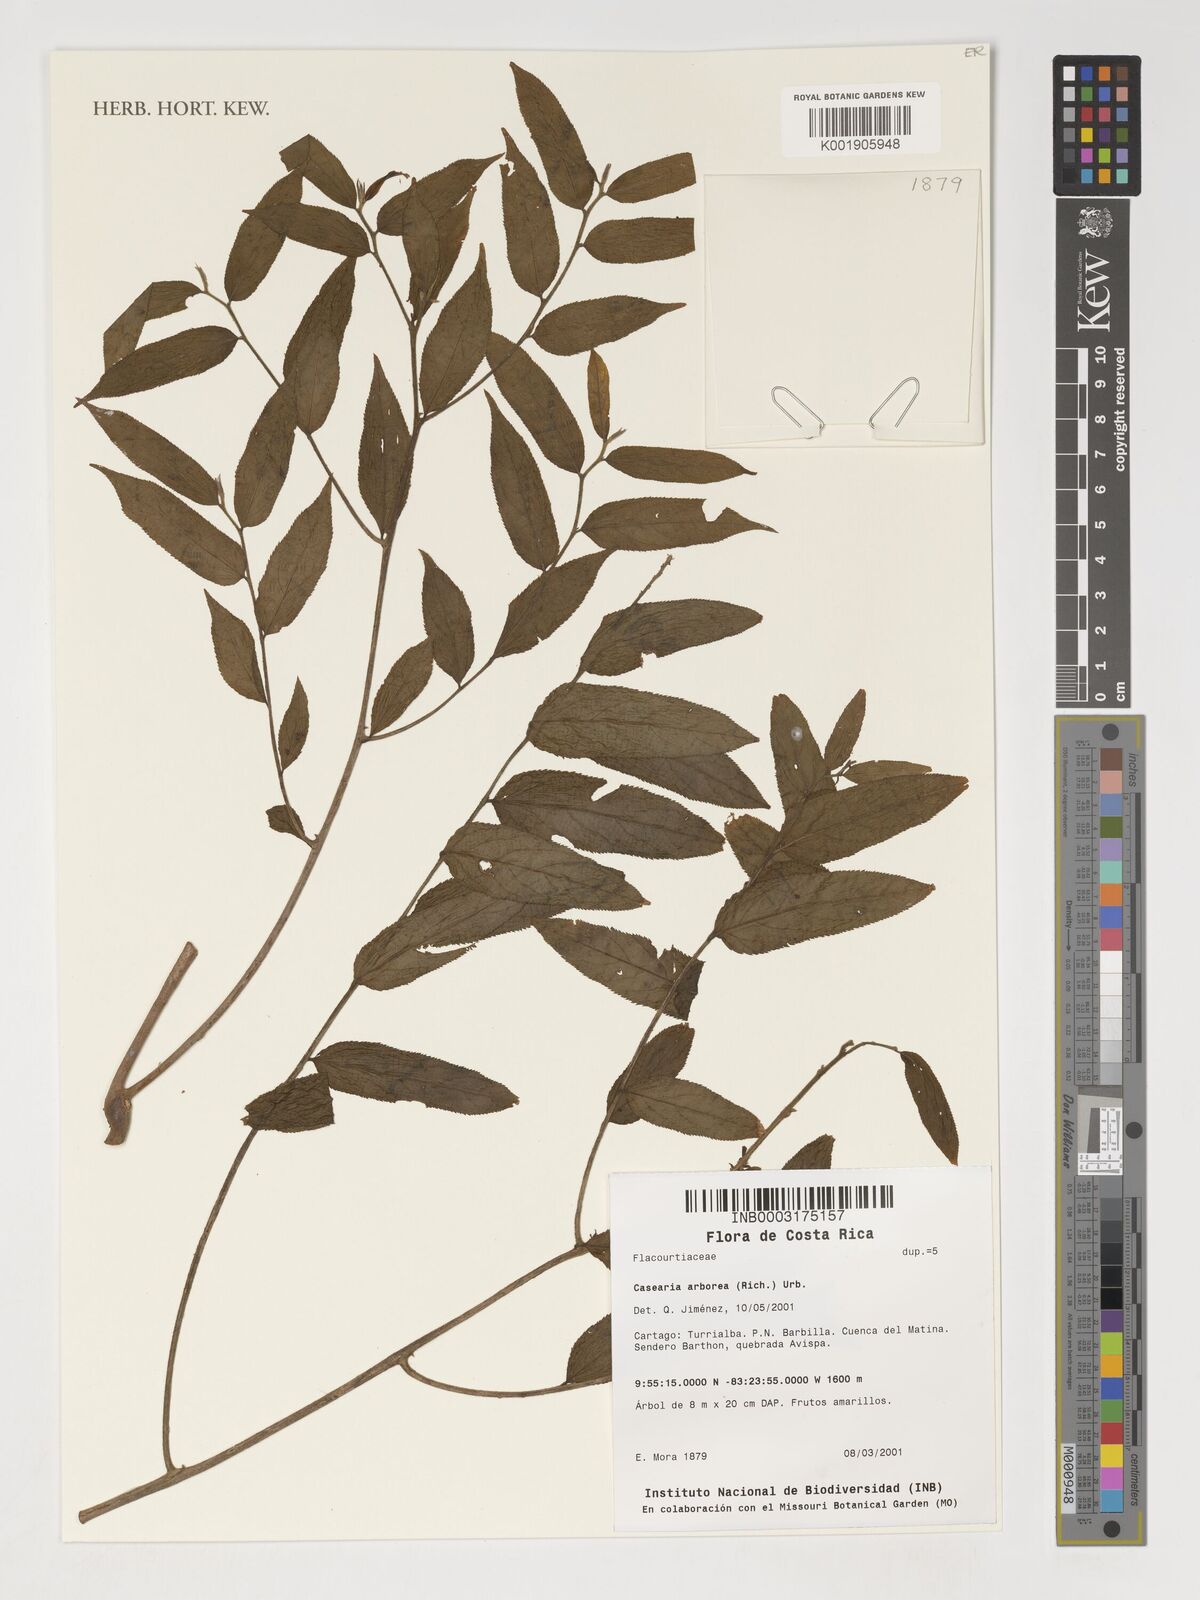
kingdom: Plantae
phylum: Tracheophyta
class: Magnoliopsida
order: Malpighiales
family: Salicaceae
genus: Casearia
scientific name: Casearia arborea
